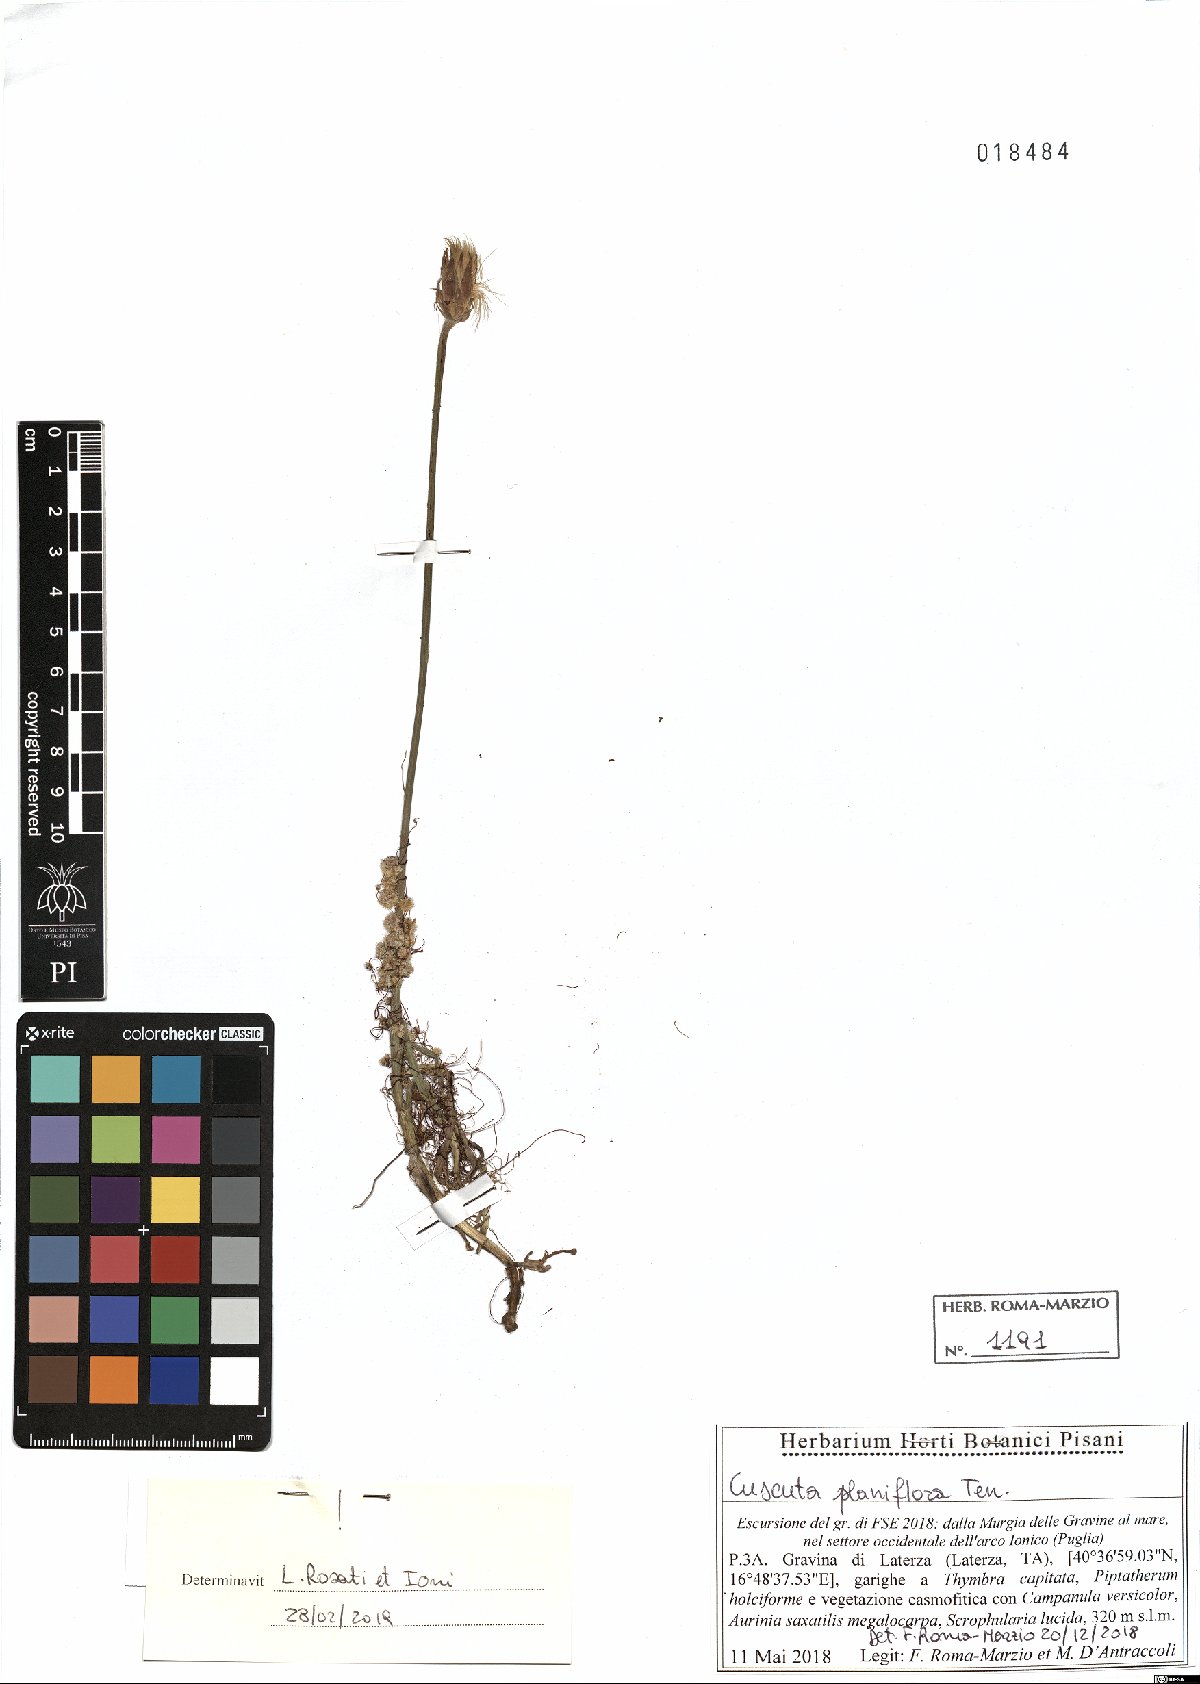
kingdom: Plantae
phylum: Tracheophyta
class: Magnoliopsida
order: Solanales
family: Convolvulaceae
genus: Cuscuta
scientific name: Cuscuta planiflora
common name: Small-seed alfalfa dodder
